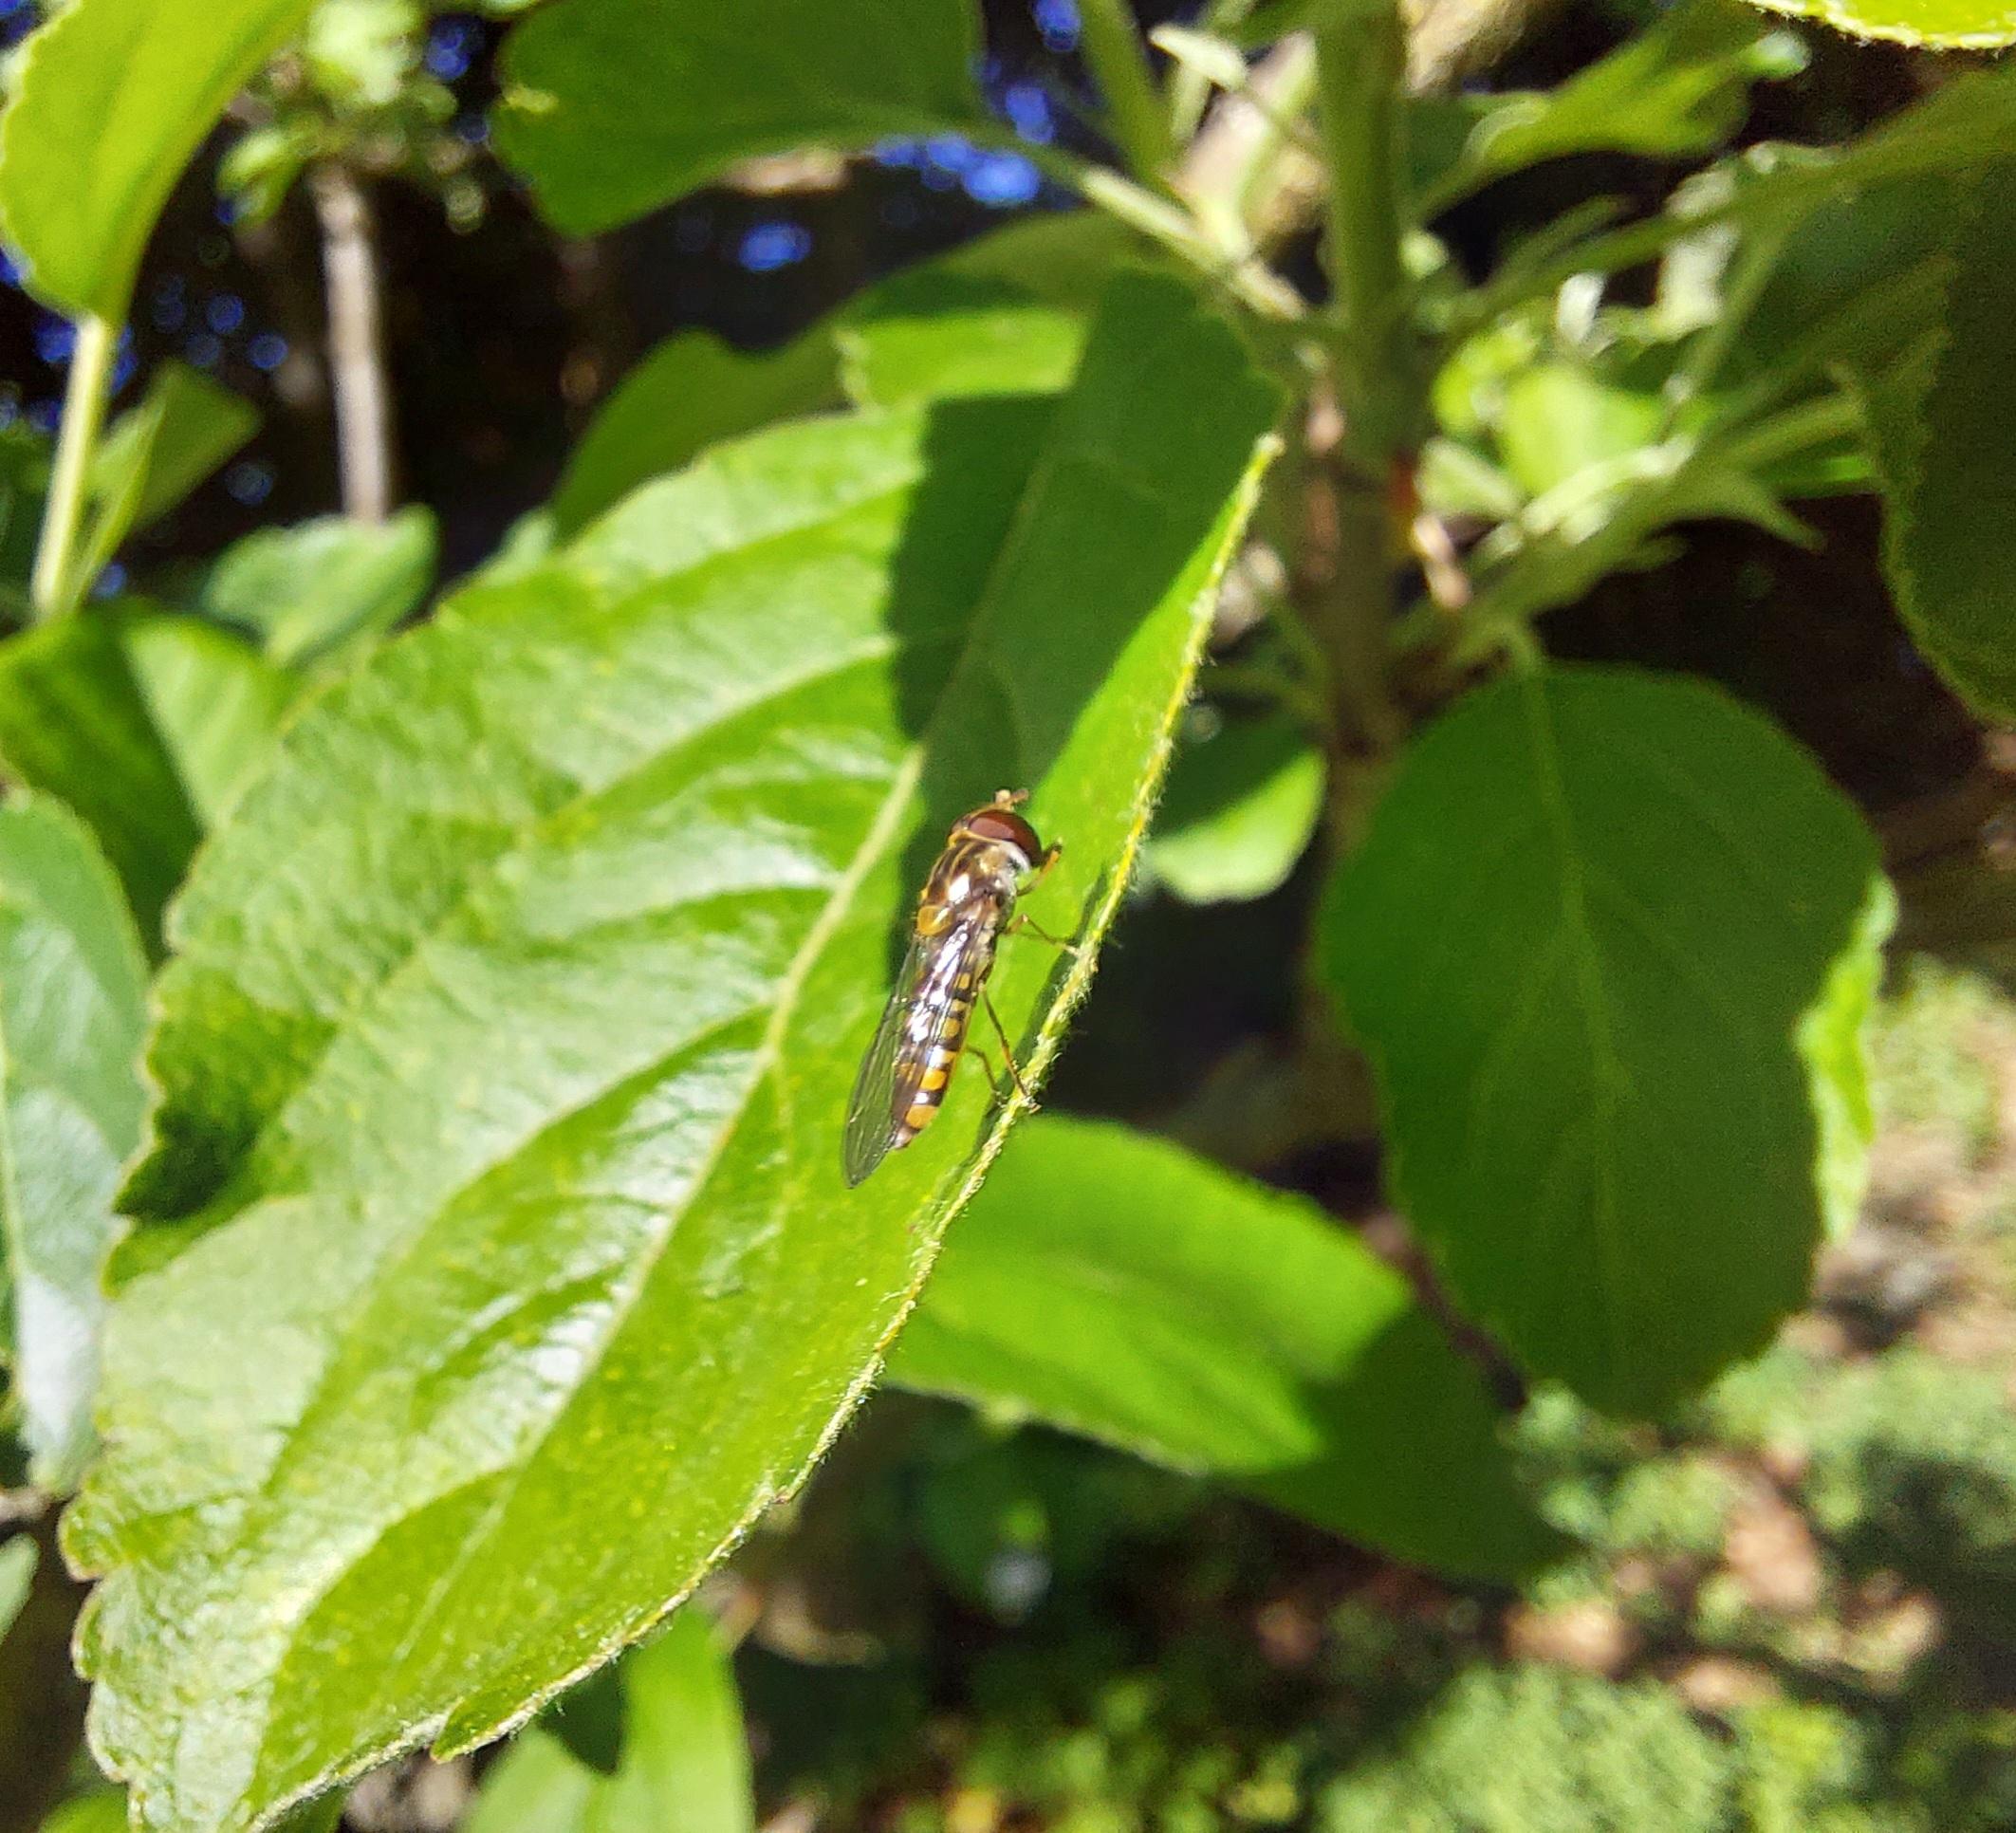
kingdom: Animalia
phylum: Arthropoda
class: Insecta
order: Diptera
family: Syrphidae
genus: Episyrphus
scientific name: Episyrphus balteatus
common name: Dobbeltbåndet svirreflue
